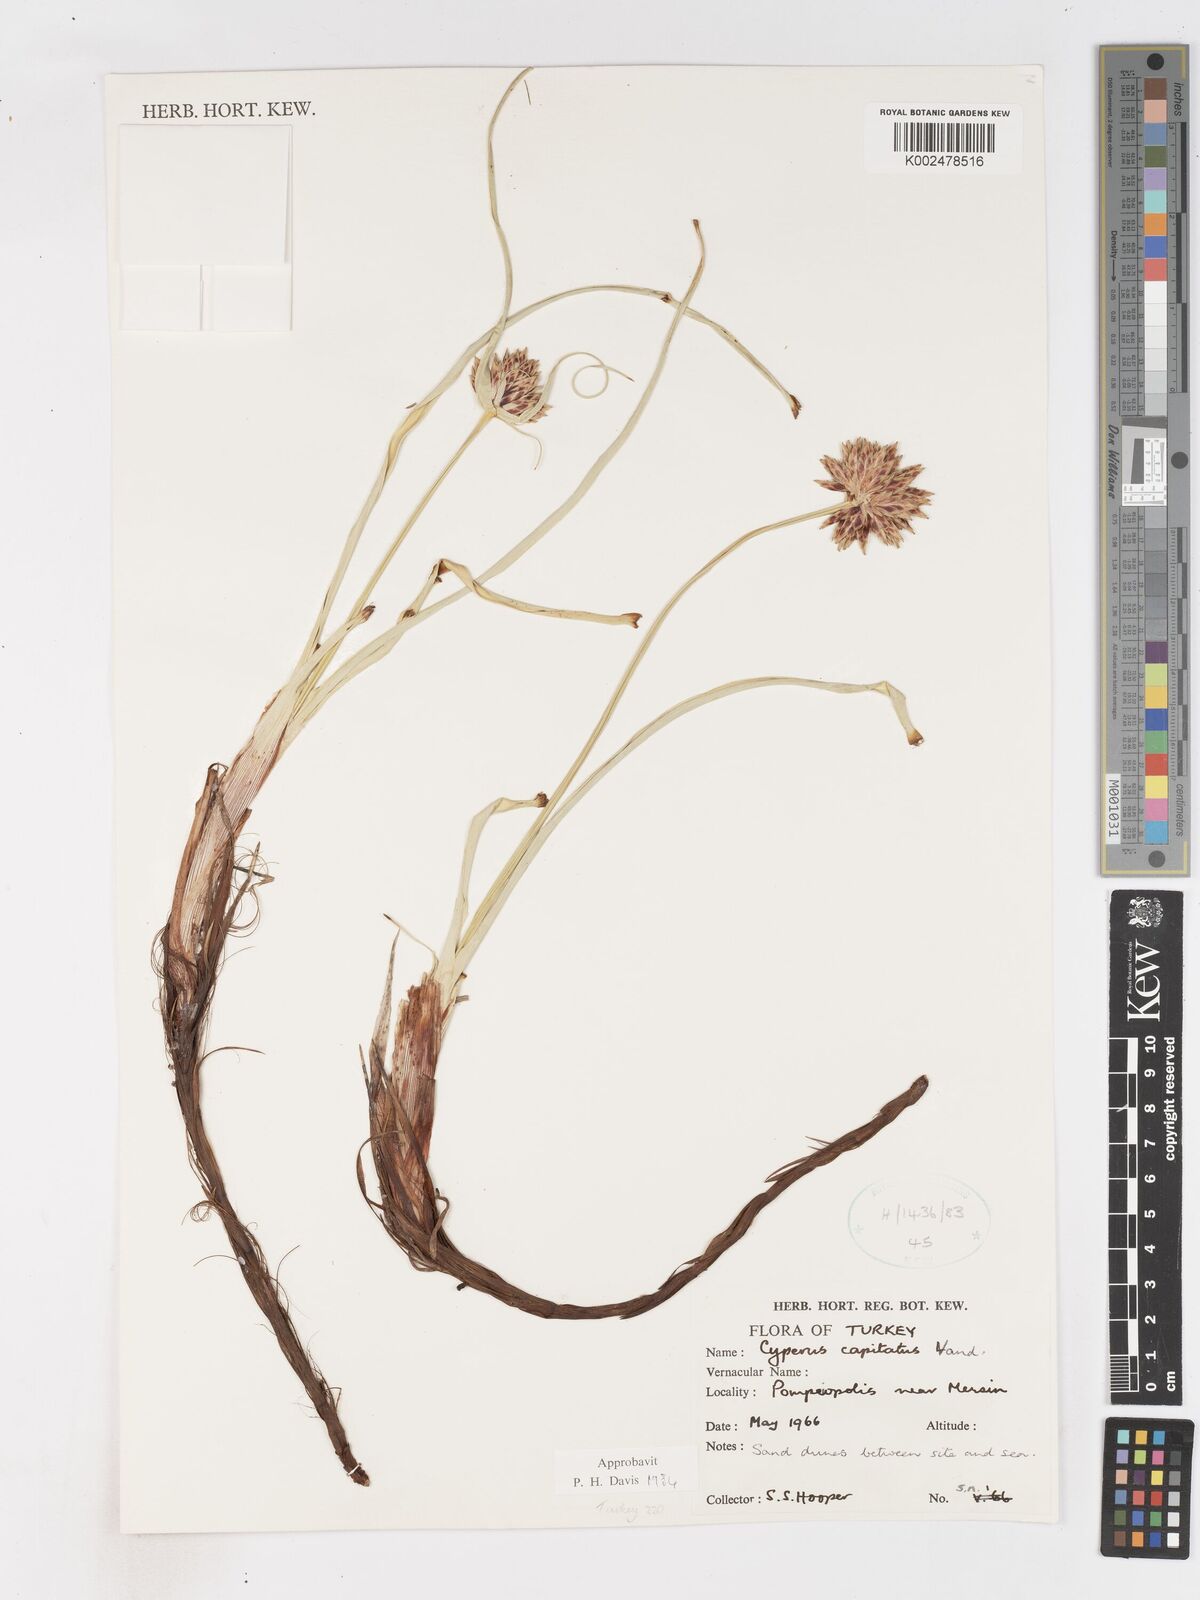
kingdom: Plantae
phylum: Tracheophyta
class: Liliopsida
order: Poales
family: Cyperaceae
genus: Cyperus
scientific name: Cyperus capitatus
